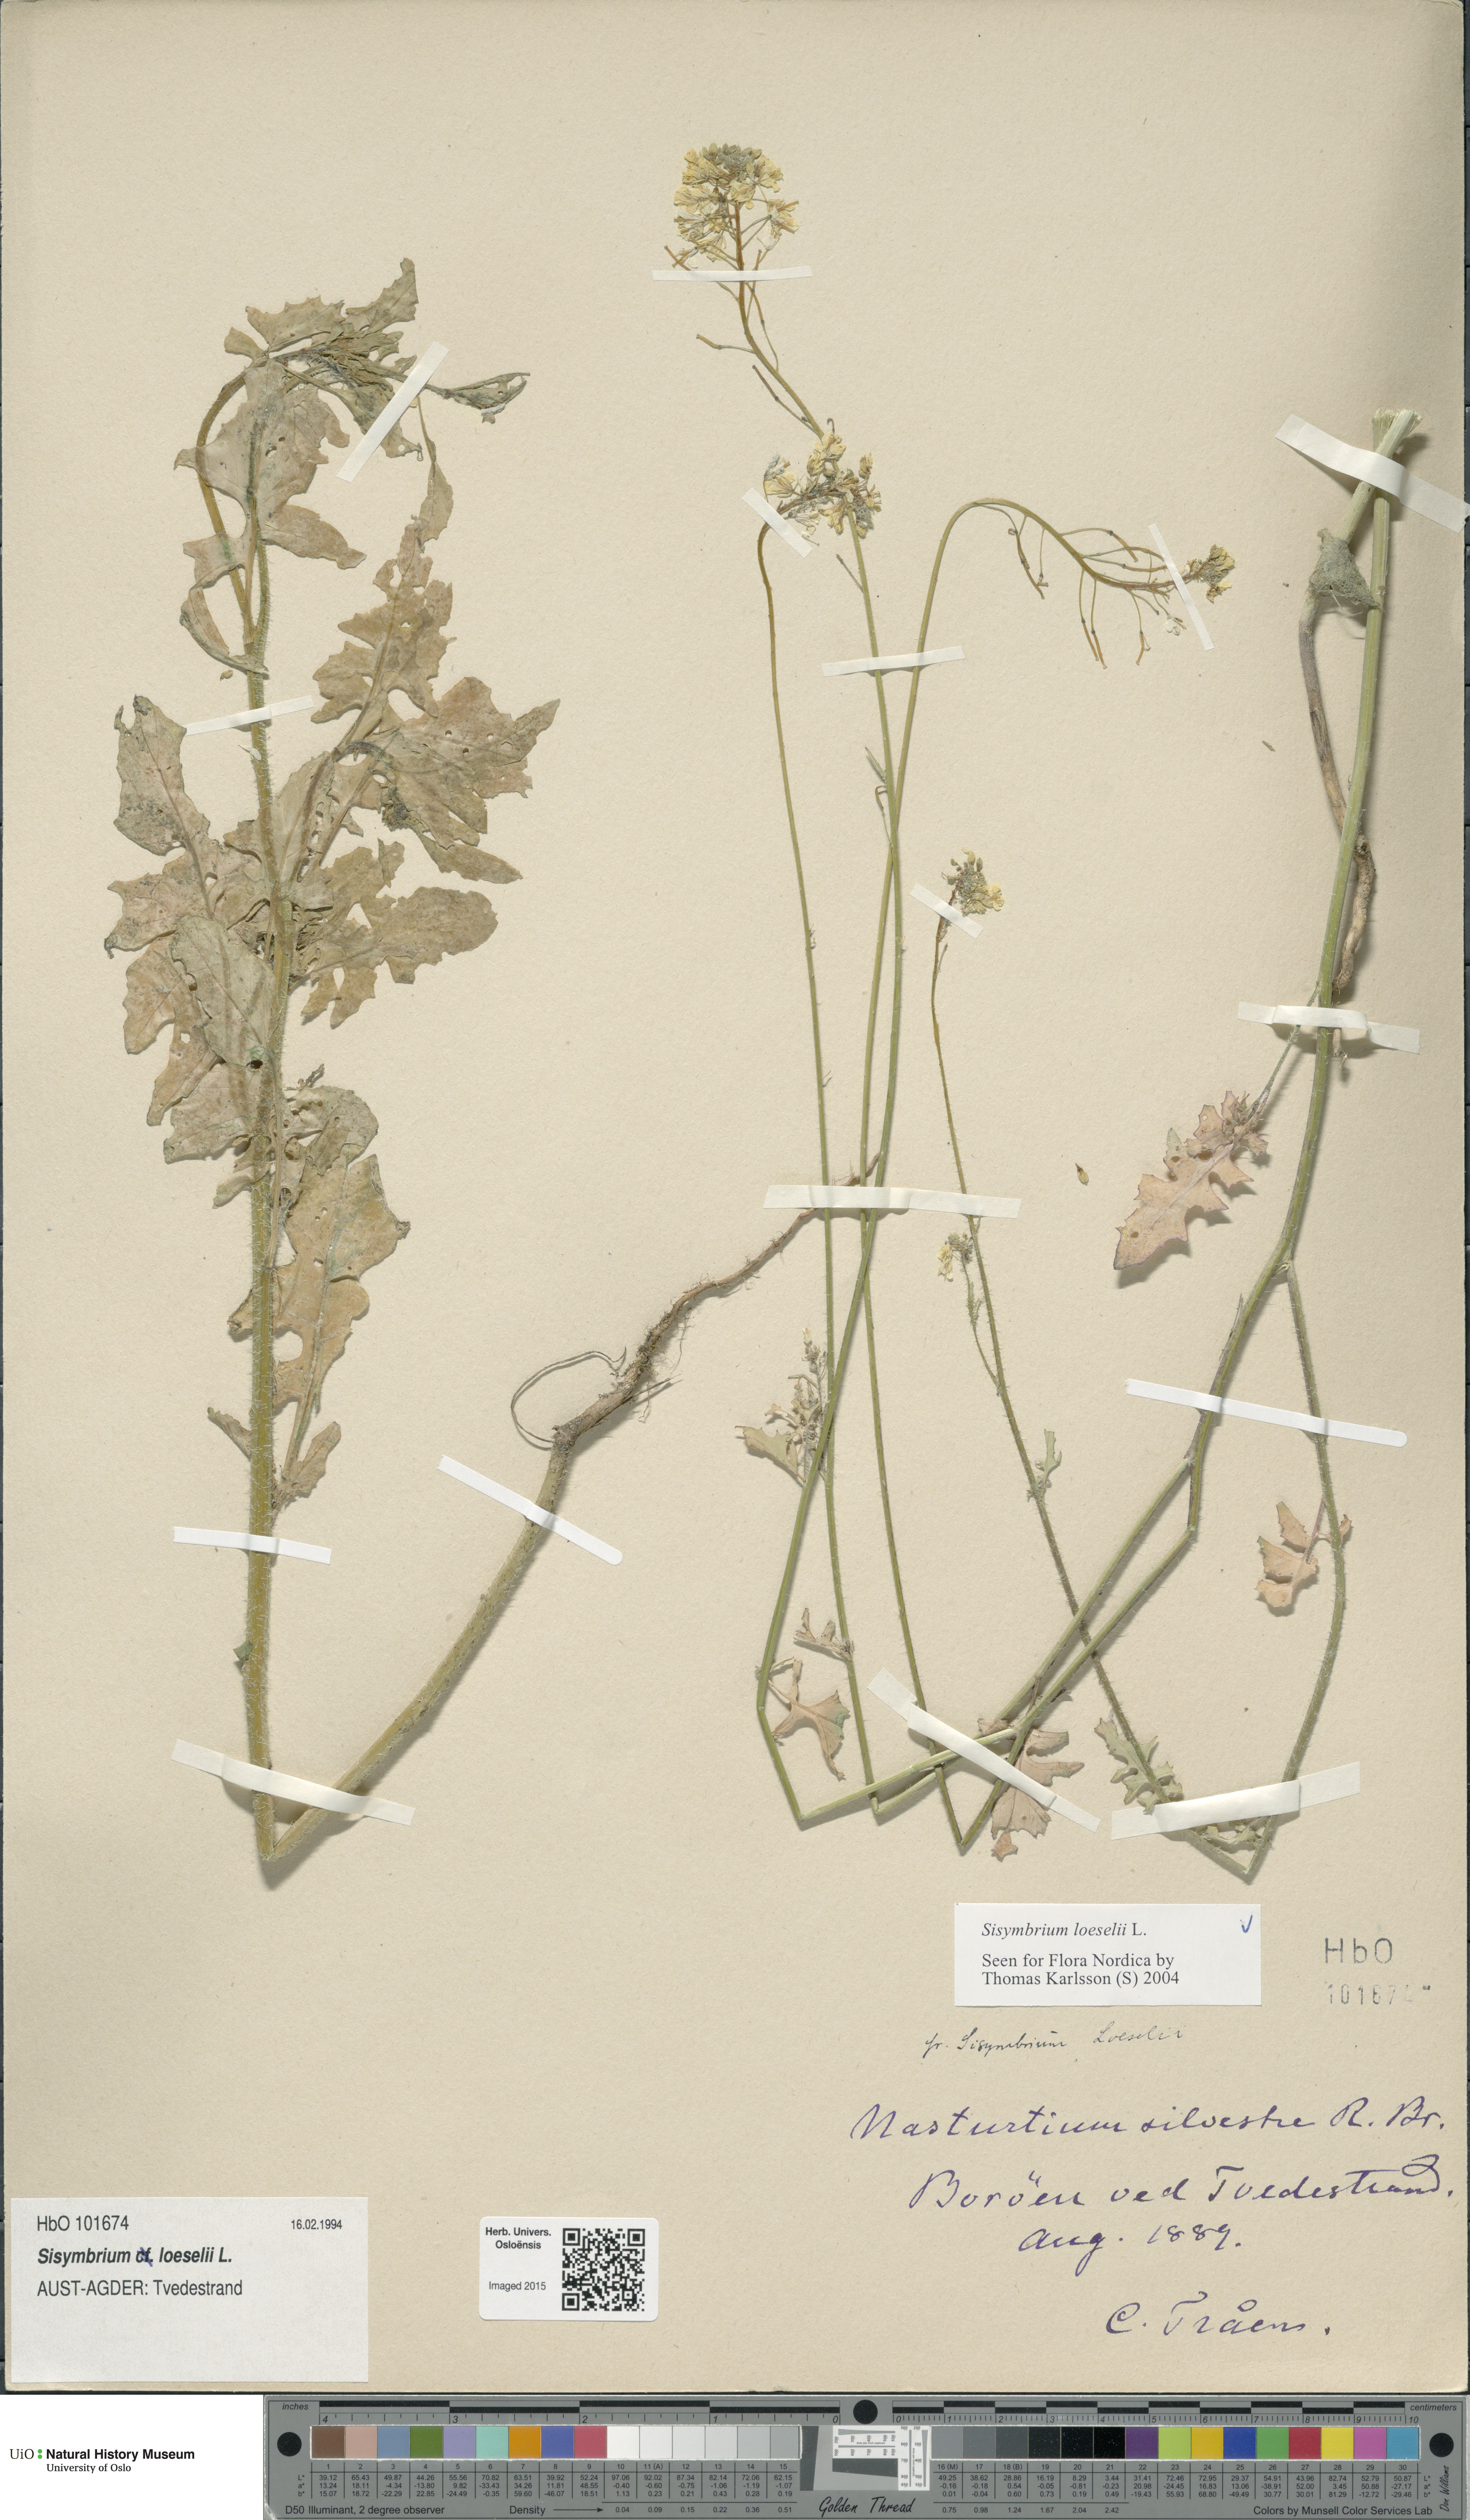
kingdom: Plantae
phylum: Tracheophyta
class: Magnoliopsida
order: Brassicales
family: Brassicaceae
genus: Sisymbrium
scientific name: Sisymbrium loeselii
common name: False london-rocket
